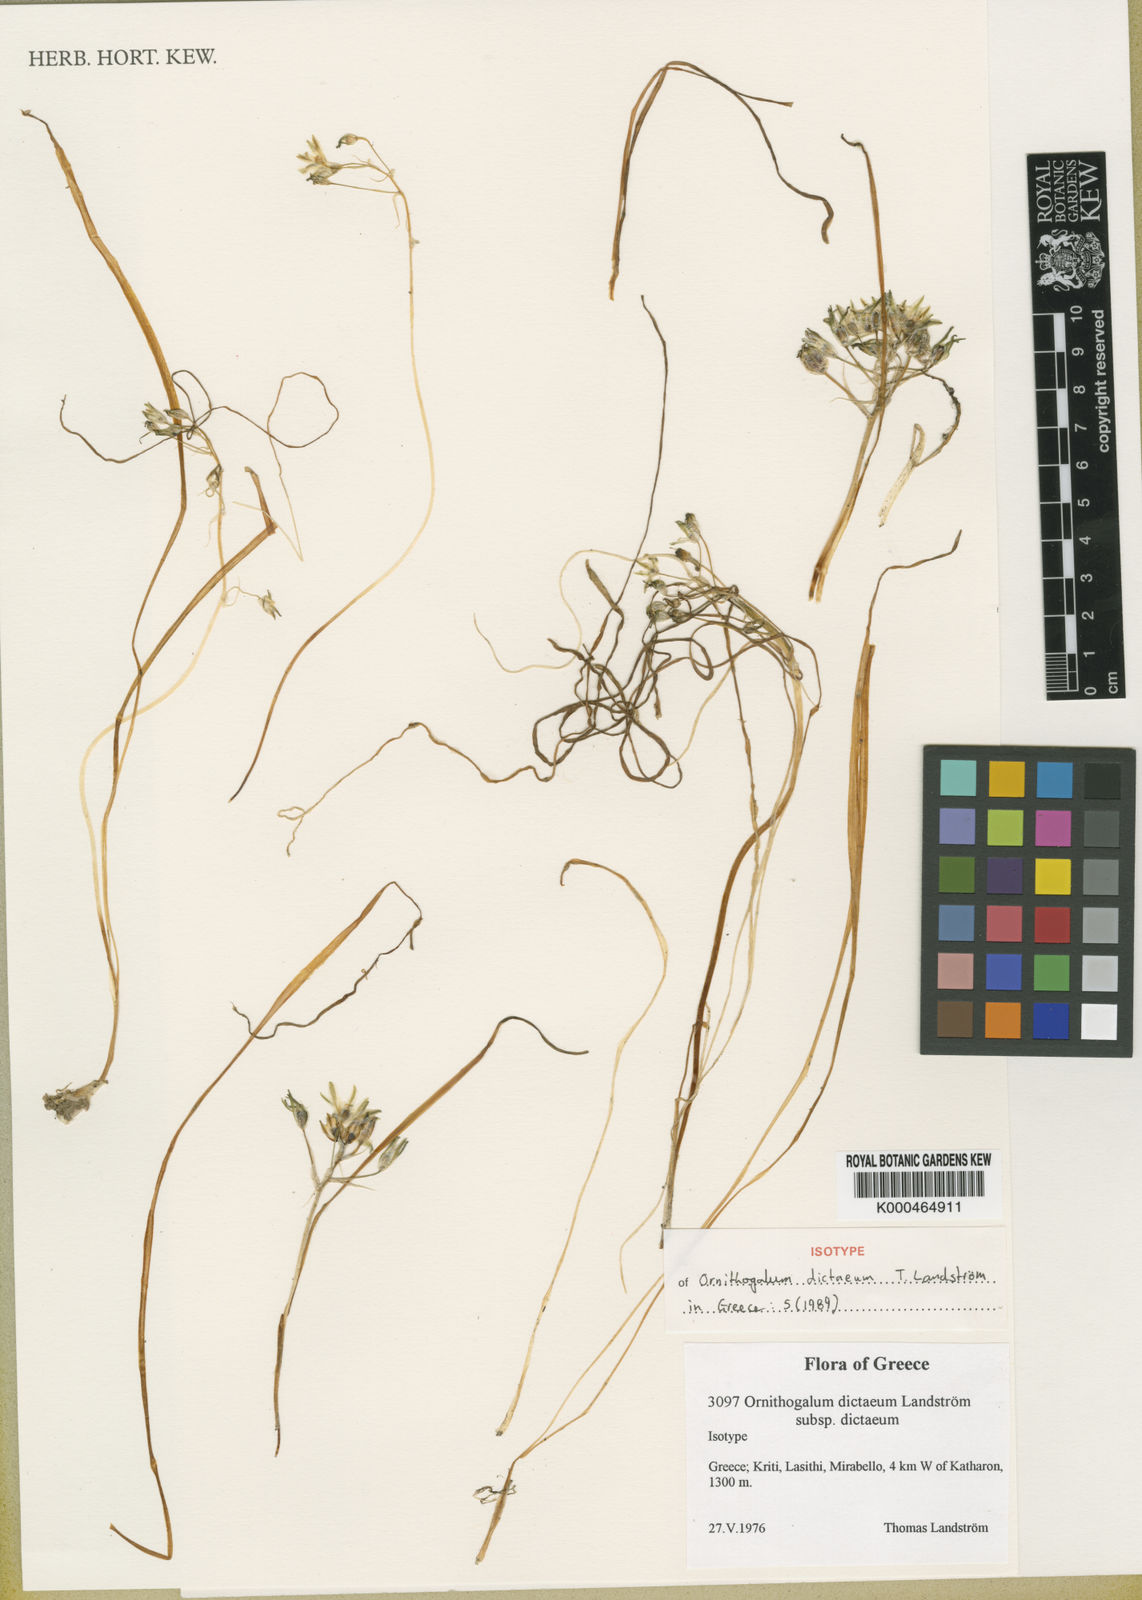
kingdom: Plantae
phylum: Tracheophyta
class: Liliopsida
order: Asparagales
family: Asparagaceae
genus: Ornithogalum
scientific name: Ornithogalum
